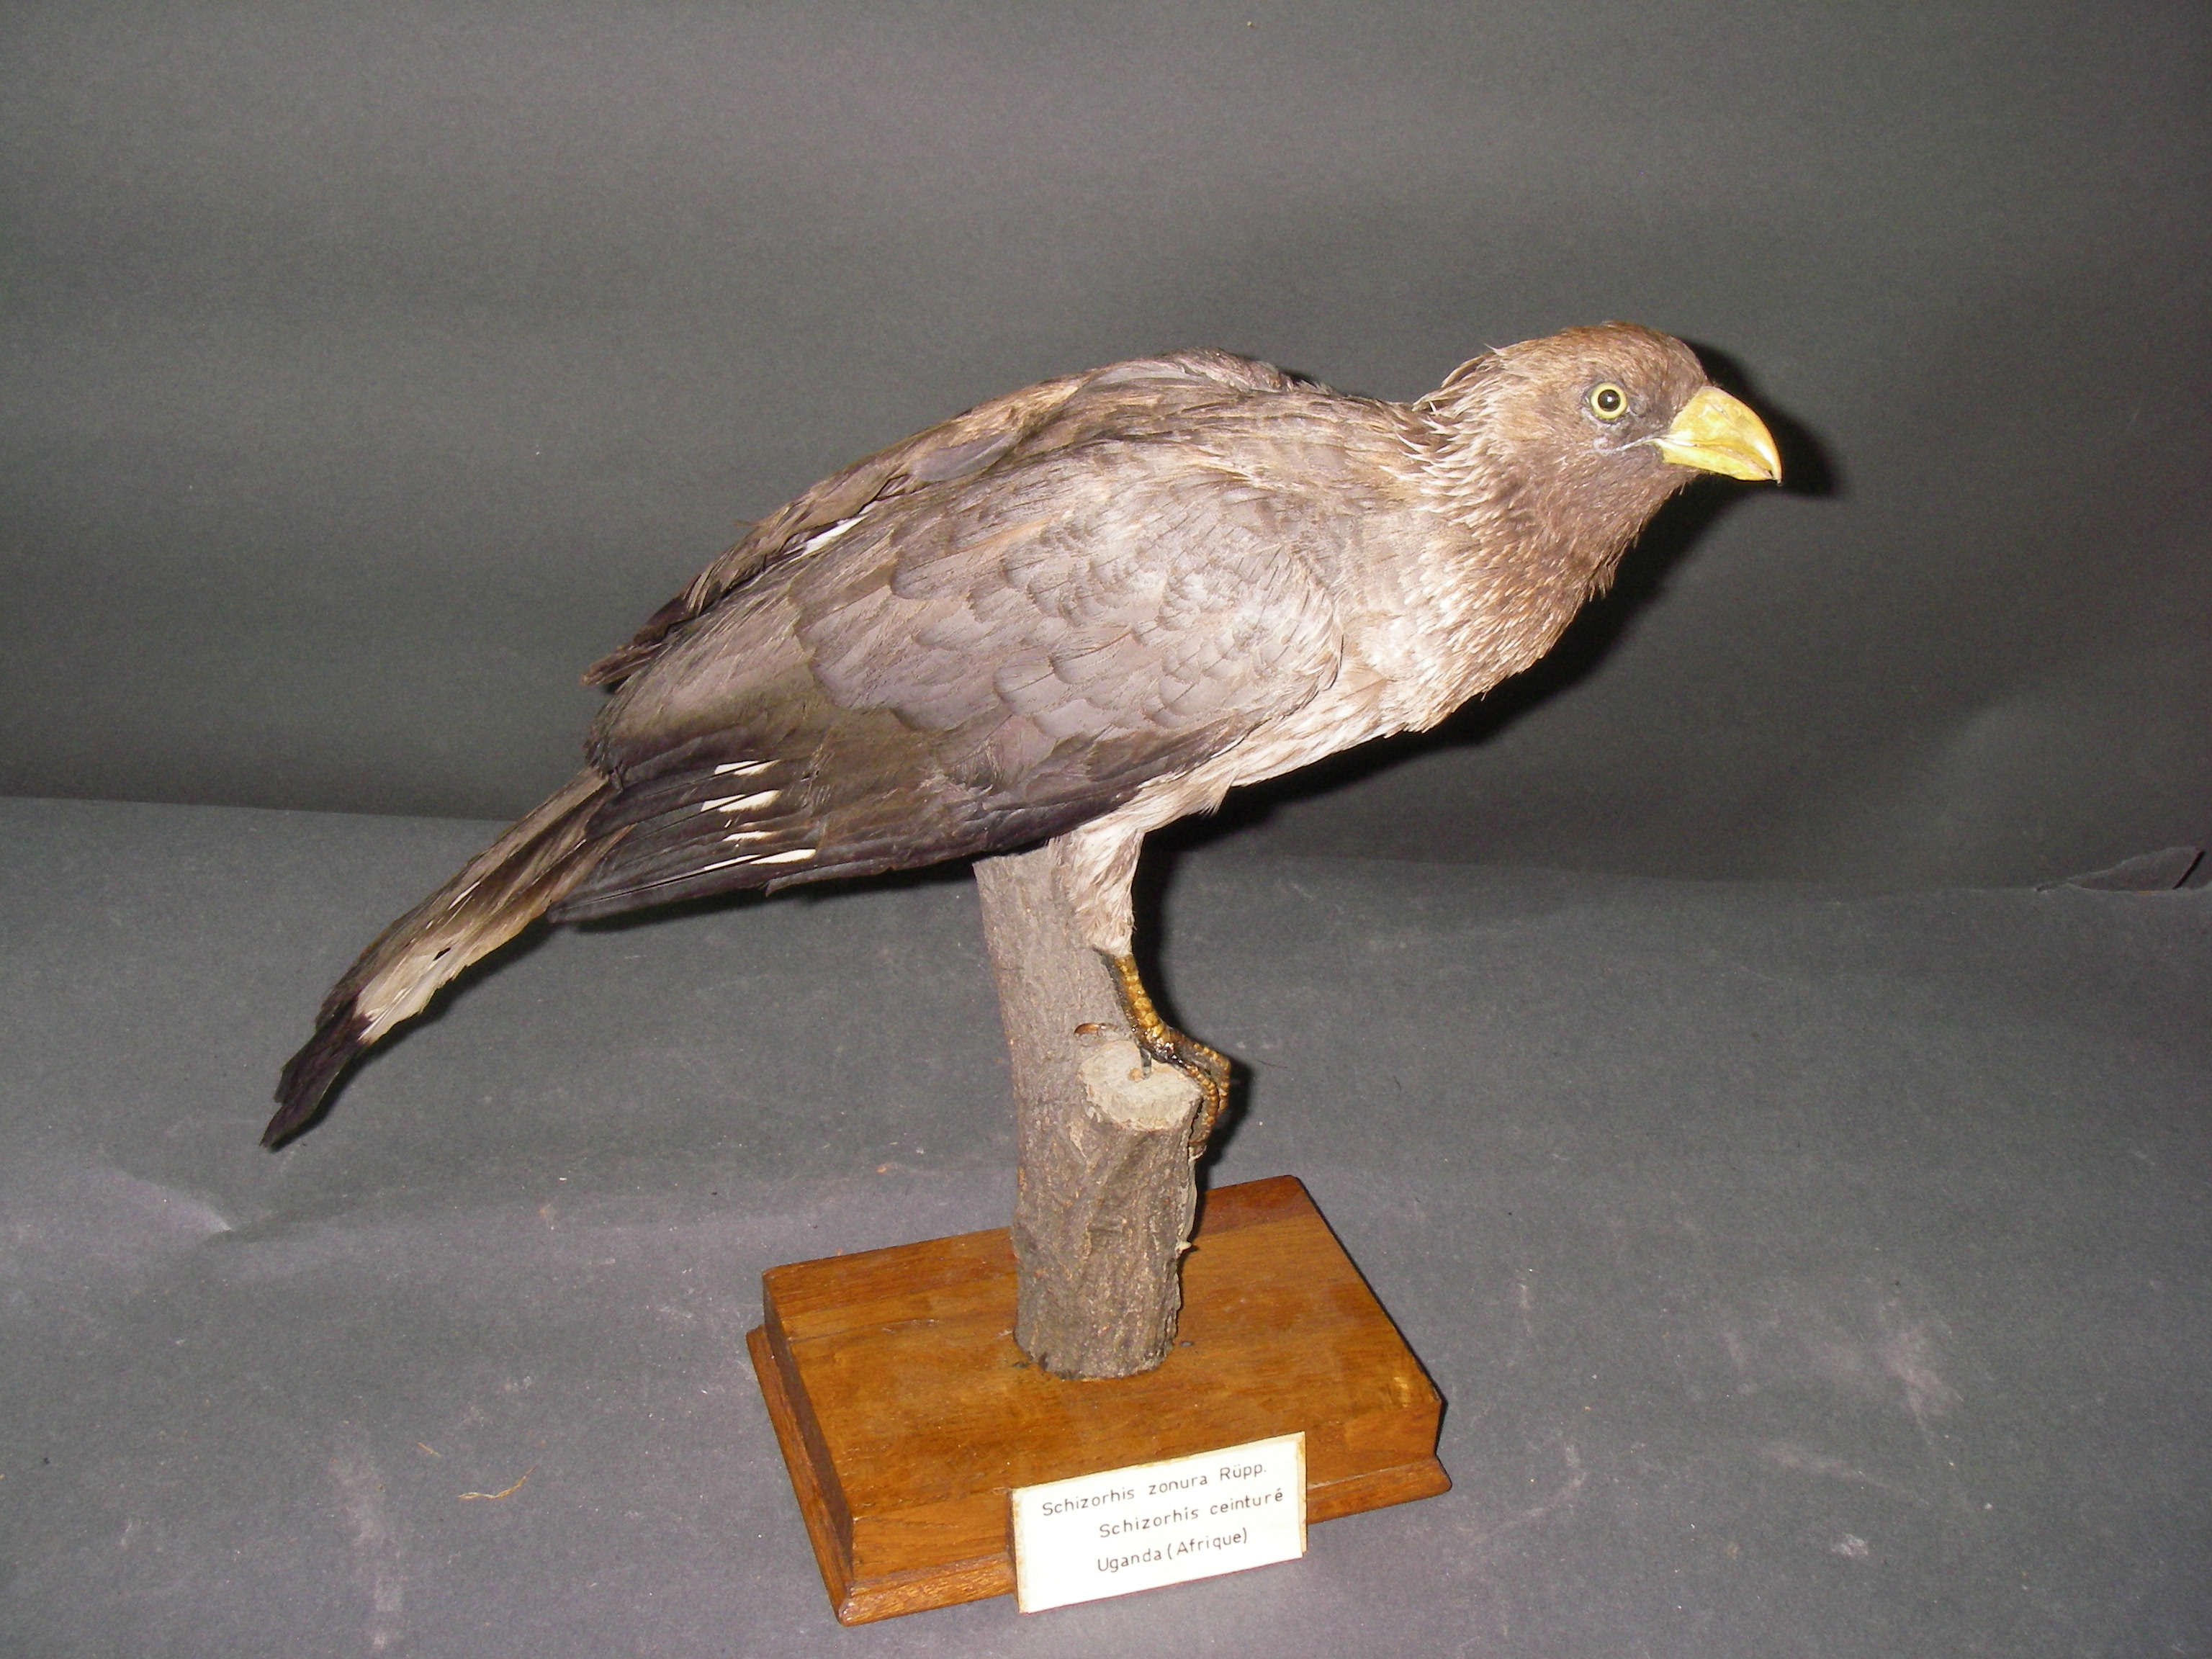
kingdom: Animalia
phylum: Chordata
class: Aves
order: Musophagiformes
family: Musophagidae
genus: Crinifer
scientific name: Crinifer zonurus
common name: Eastern plantain-eater
